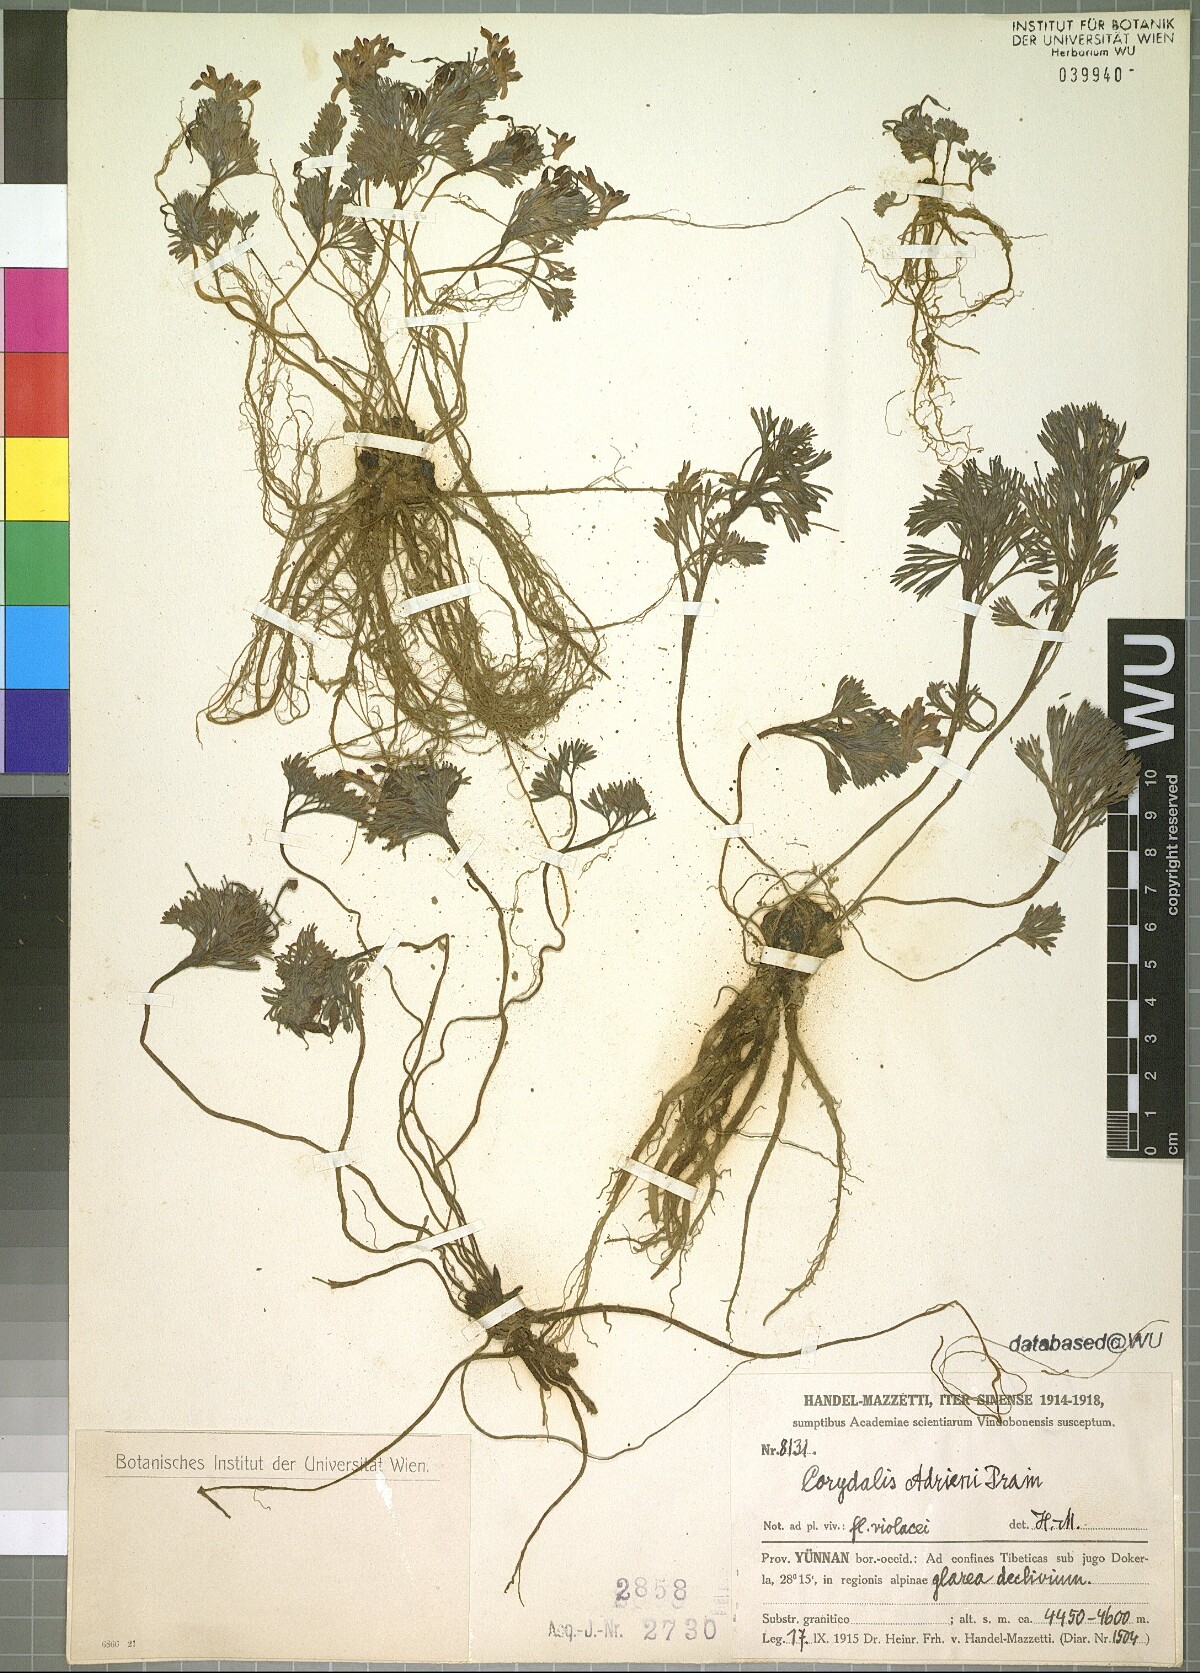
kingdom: Plantae
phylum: Tracheophyta
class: Magnoliopsida
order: Ranunculales
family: Papaveraceae
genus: Corydalis
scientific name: Corydalis melanochlora
